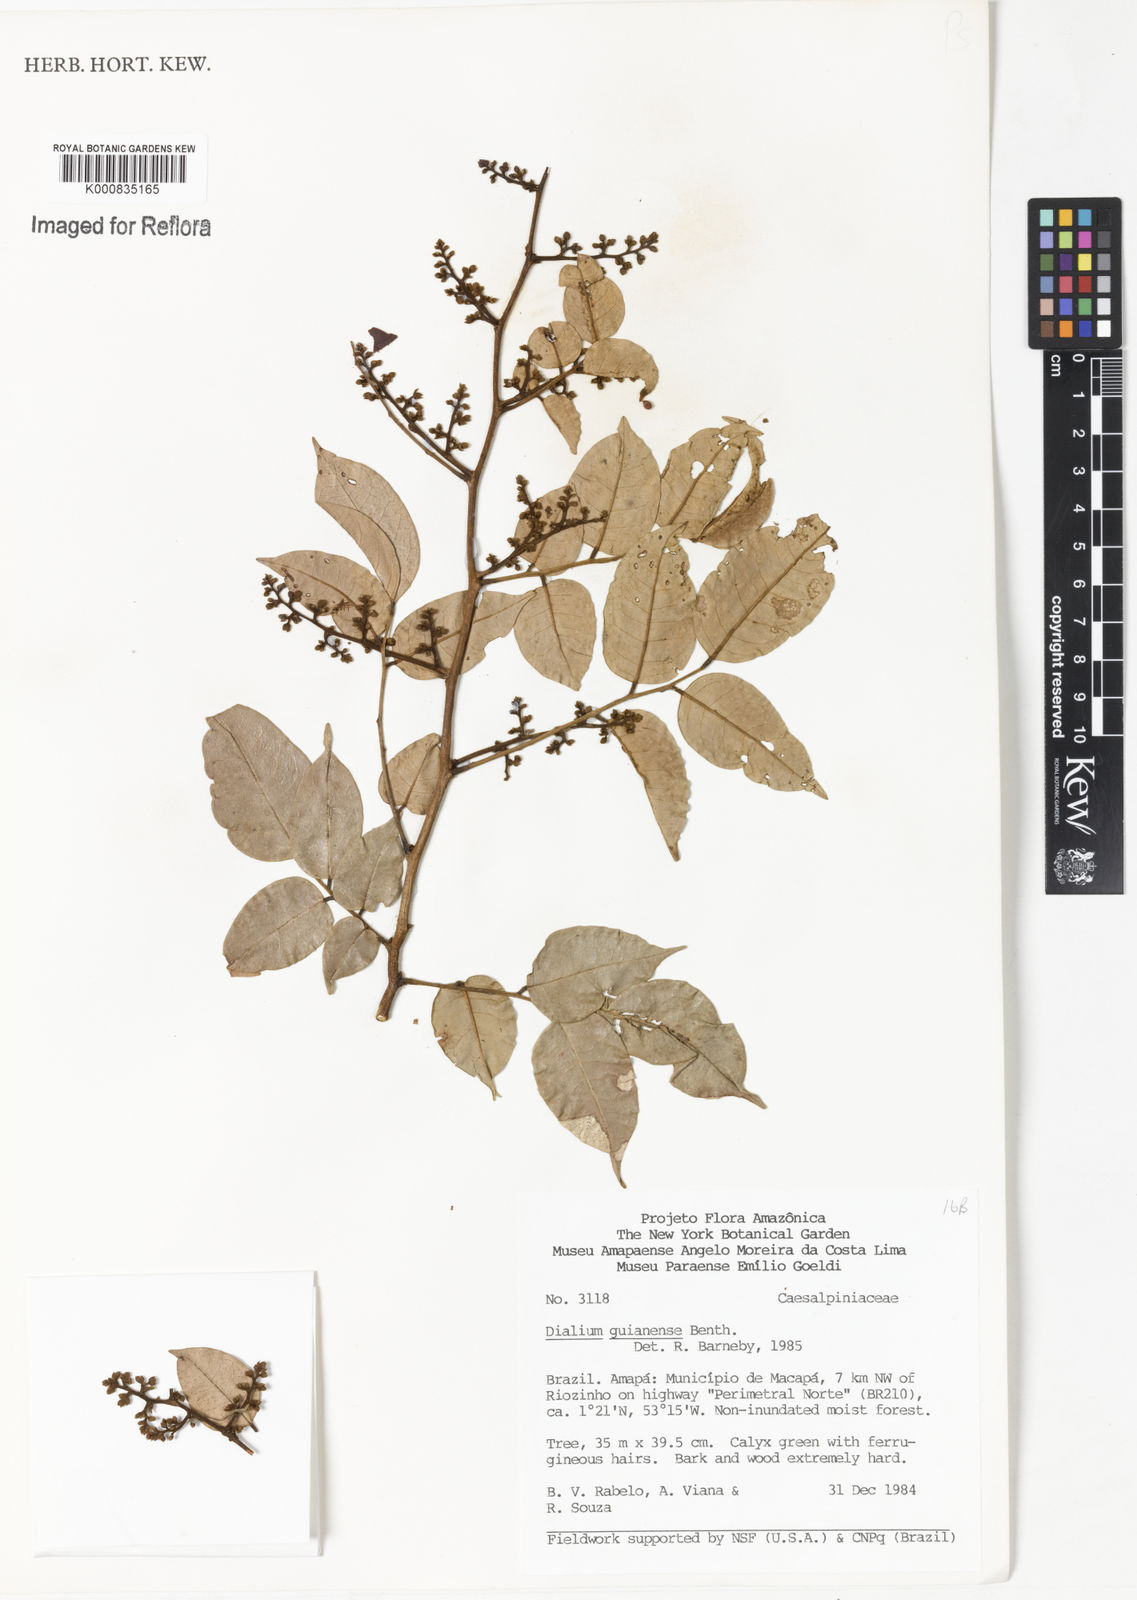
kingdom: Plantae
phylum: Tracheophyta
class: Magnoliopsida
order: Fabales
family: Fabaceae
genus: Dialium
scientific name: Dialium guianense
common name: Ironwood
